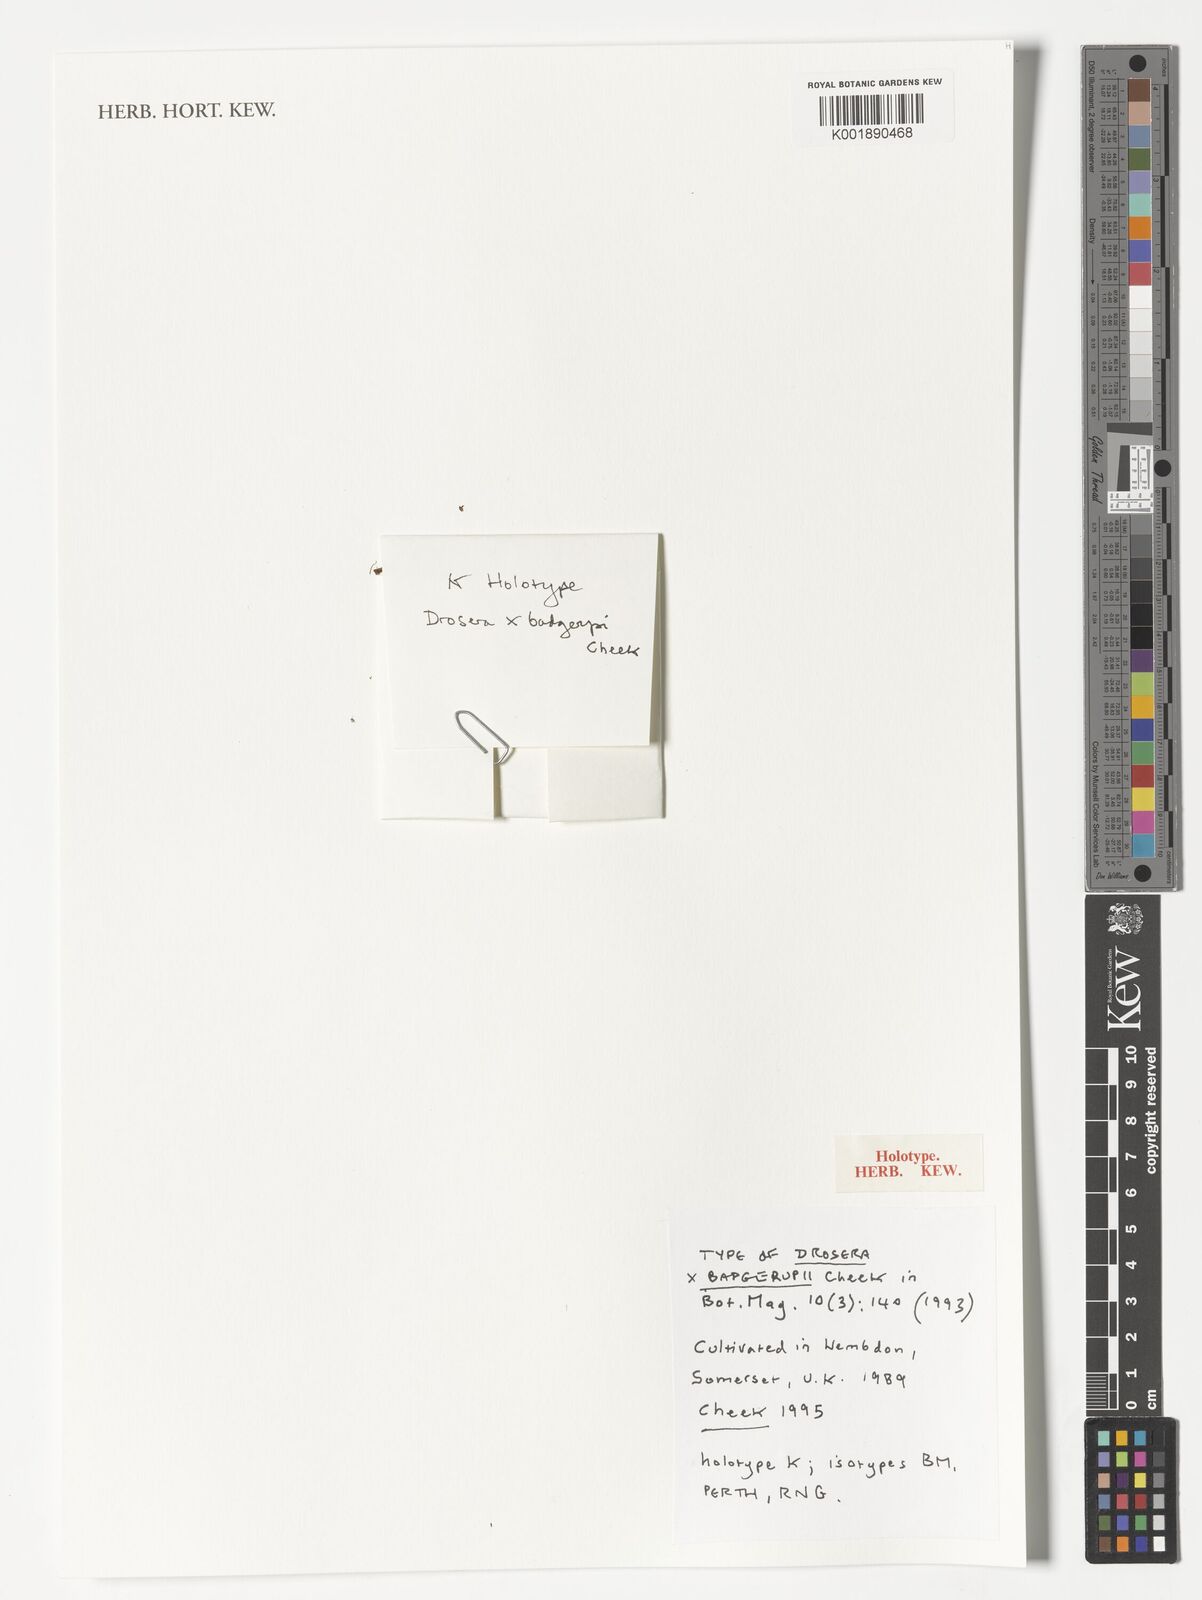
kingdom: Plantae
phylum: Tracheophyta
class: Magnoliopsida
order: Caryophyllales
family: Droseraceae
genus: Drosera
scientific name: Drosera badgerupii
